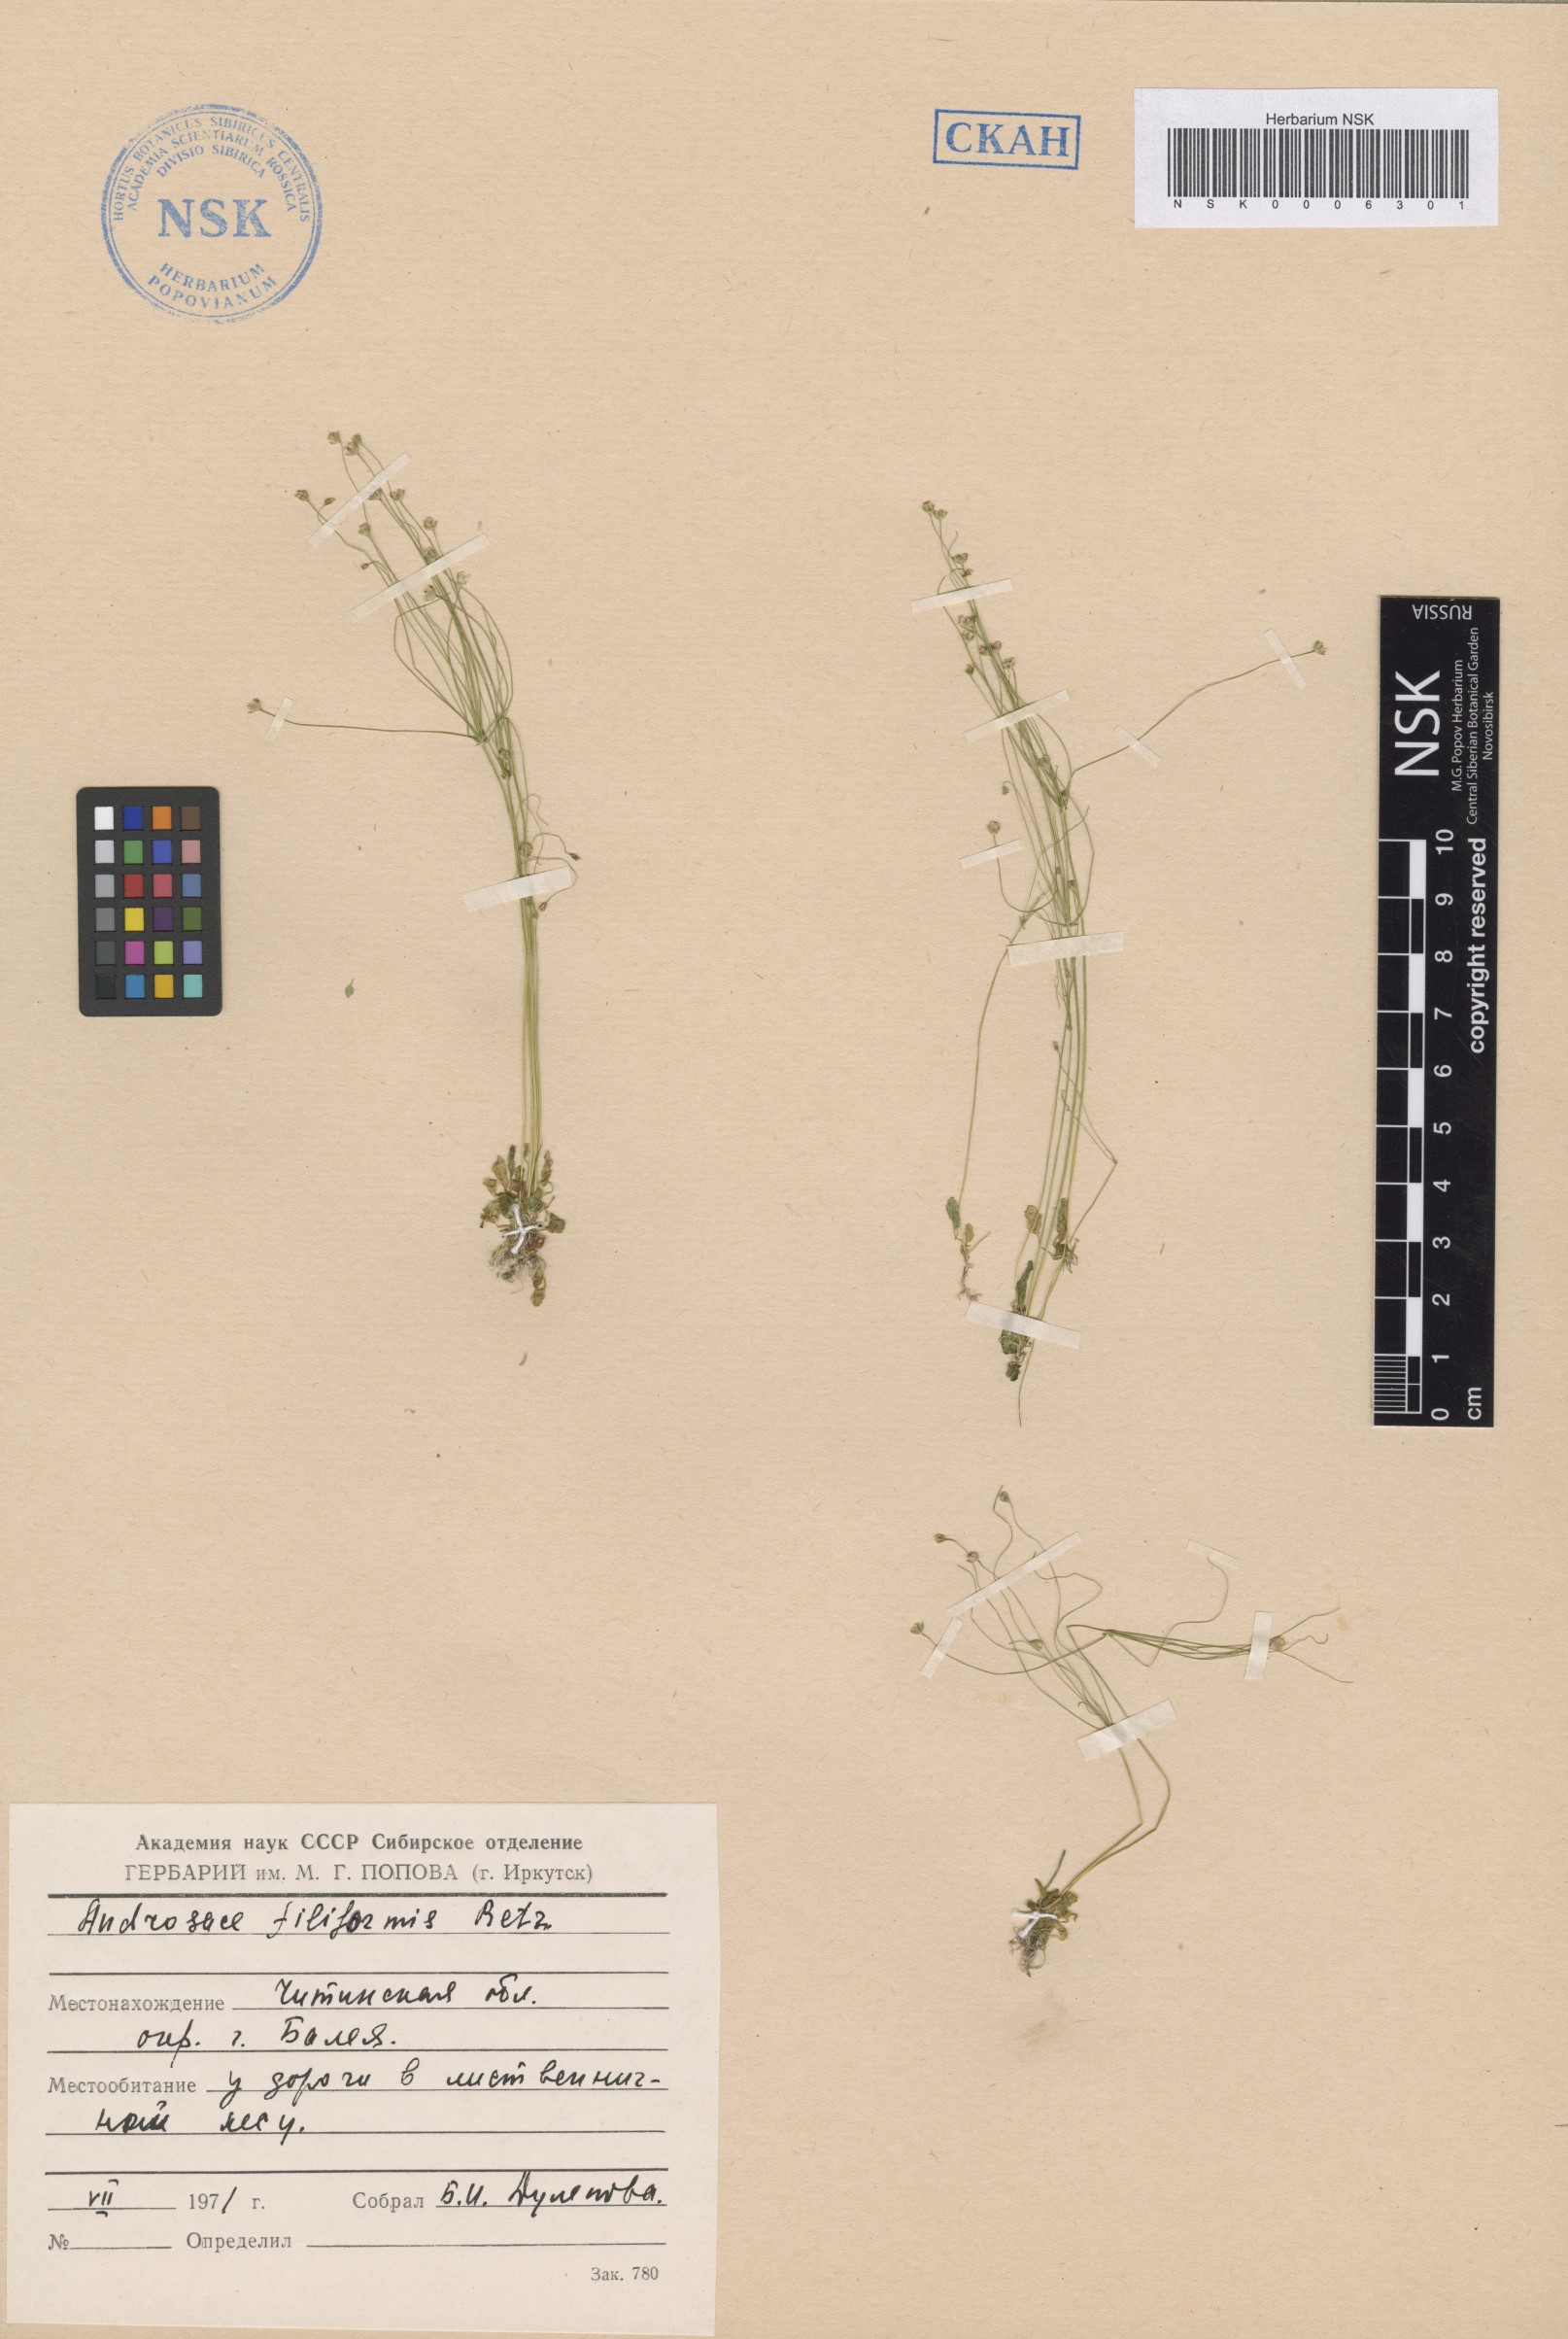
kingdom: Plantae
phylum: Tracheophyta
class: Magnoliopsida
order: Ericales
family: Primulaceae
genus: Androsace
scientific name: Androsace filiformis
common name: Filiform rock jasmine
